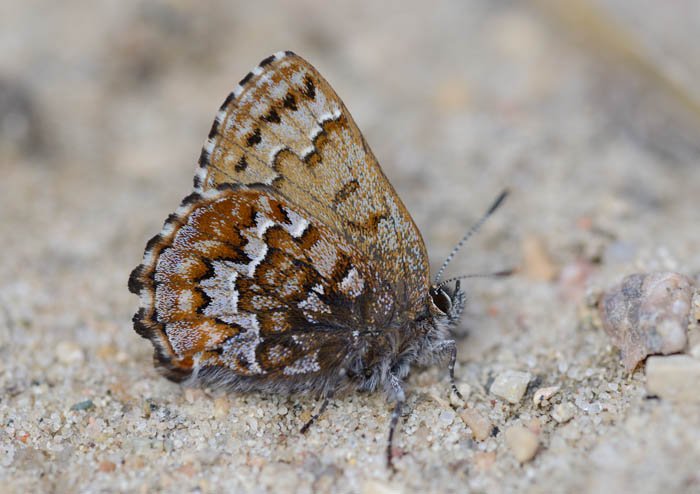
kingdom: Animalia
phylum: Arthropoda
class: Insecta
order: Lepidoptera
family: Lycaenidae
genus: Incisalia
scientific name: Incisalia niphon
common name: Eastern Pine Elfin
